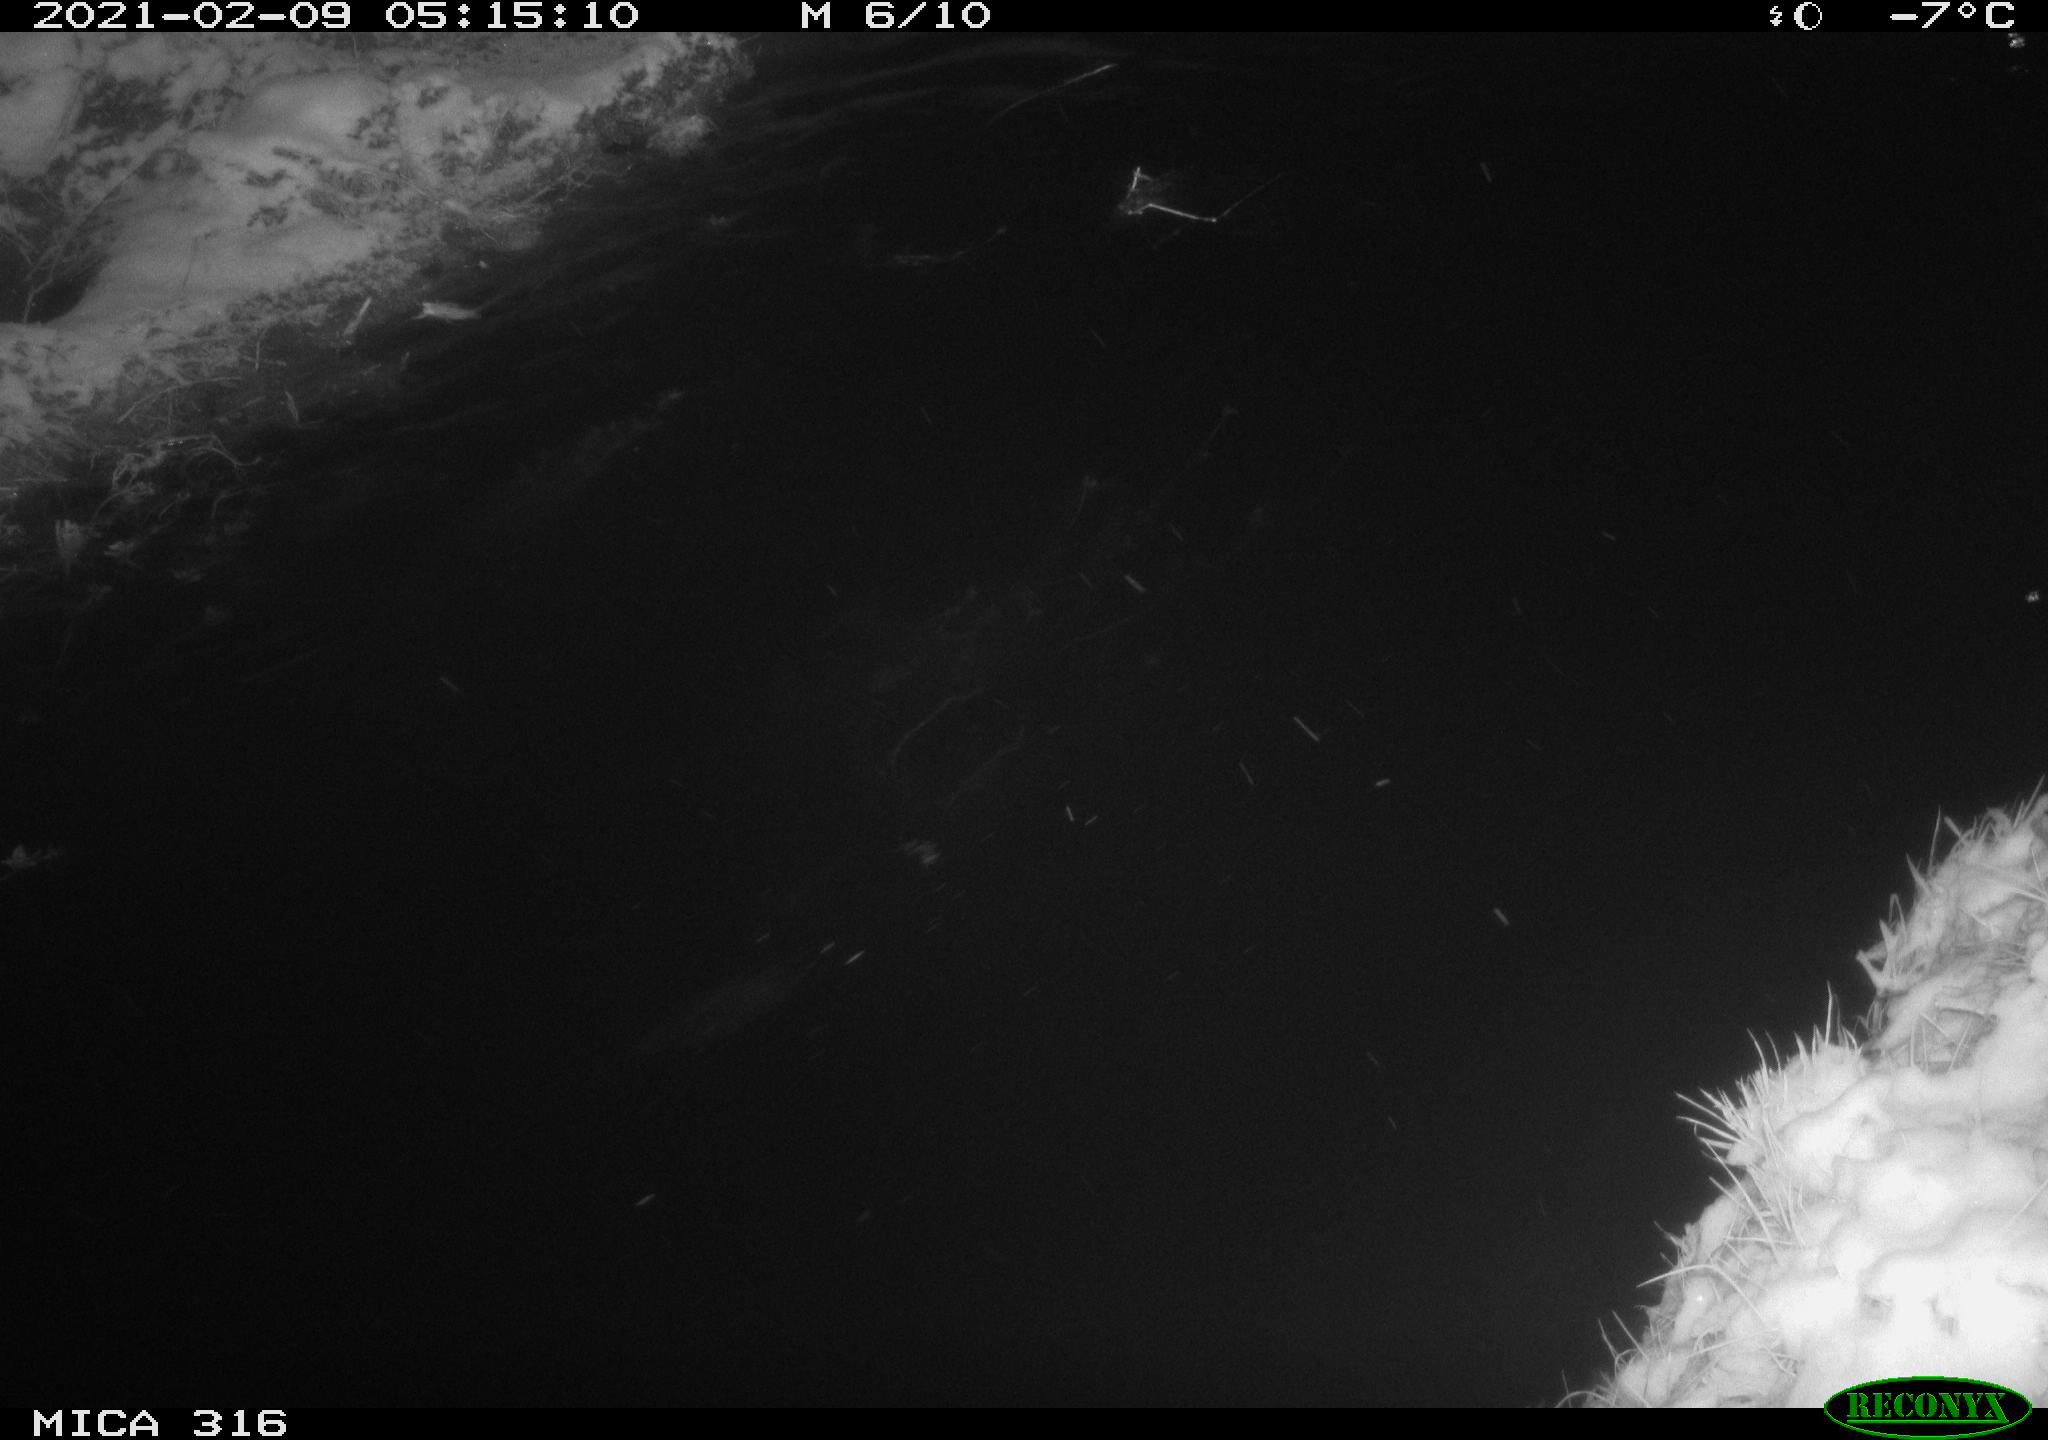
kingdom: Animalia
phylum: Chordata
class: Aves
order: Anseriformes
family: Anatidae
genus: Anas
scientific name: Anas platyrhynchos
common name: Mallard
